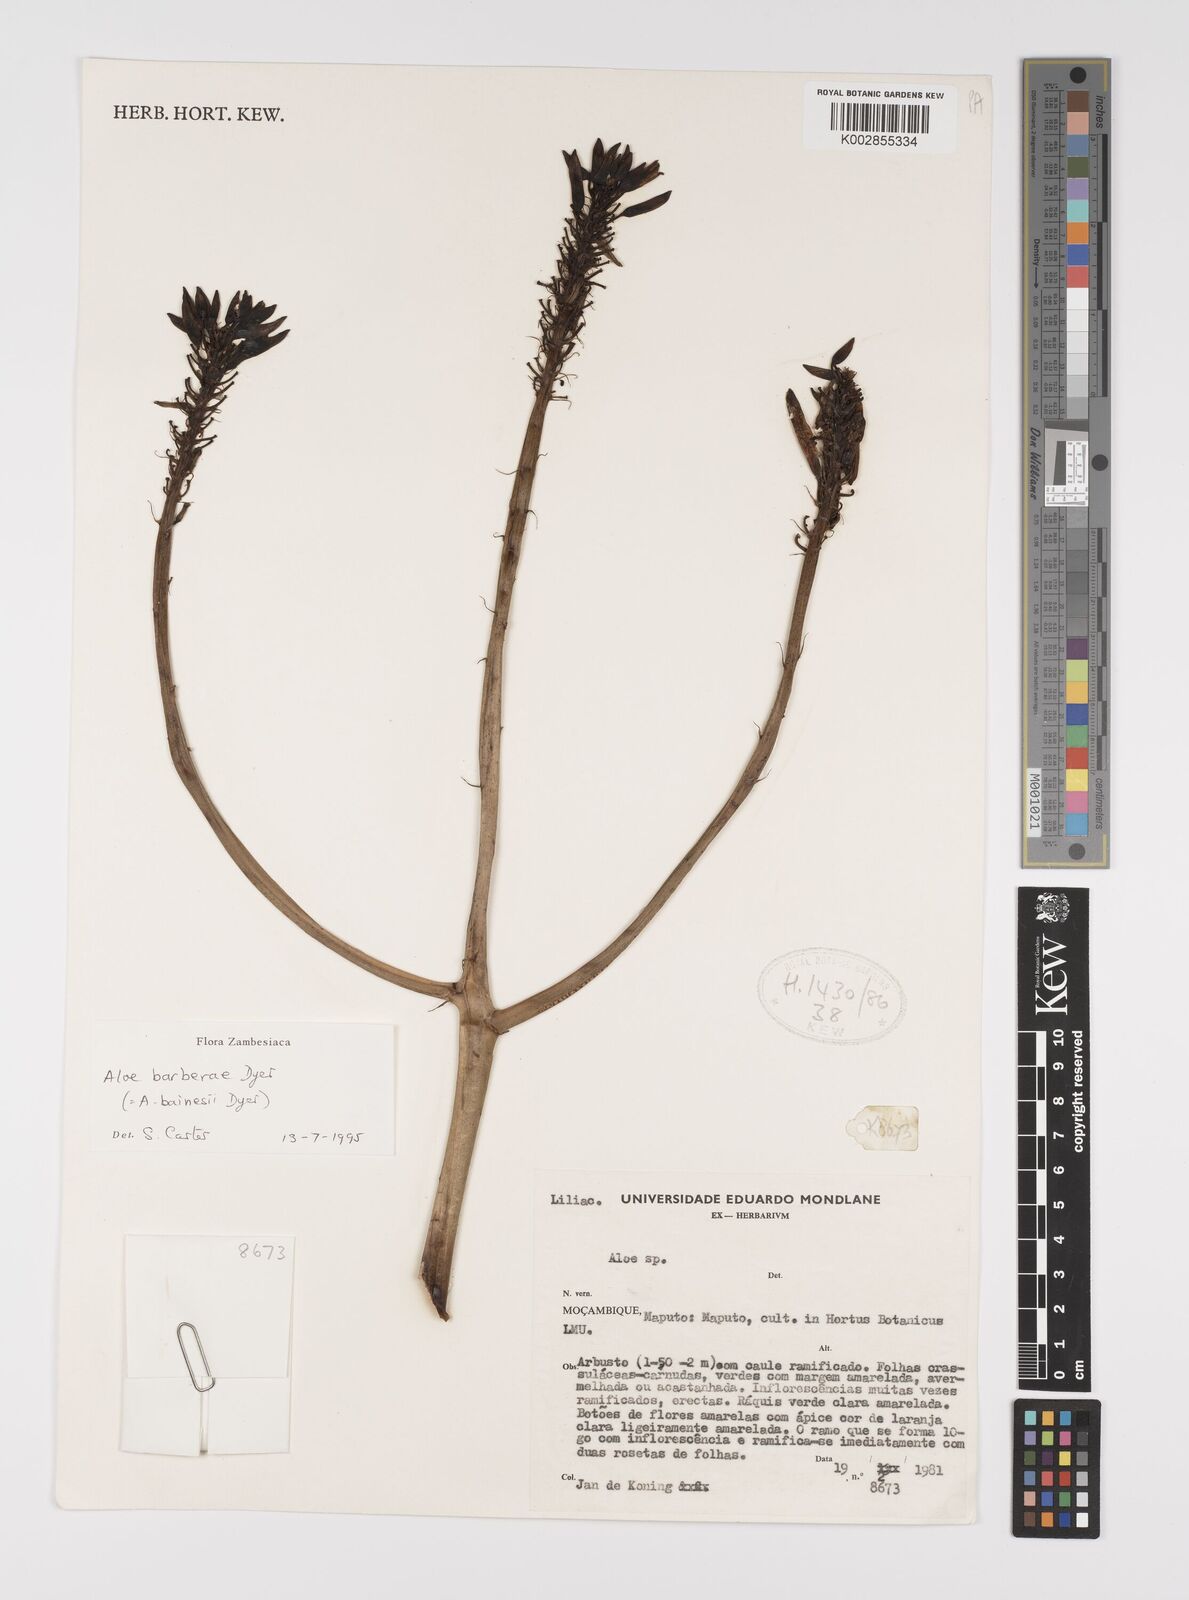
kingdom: Plantae
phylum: Tracheophyta
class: Liliopsida
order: Asparagales
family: Asphodelaceae
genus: Aloidendron
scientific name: Aloidendron barberae
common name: Tree aloe
